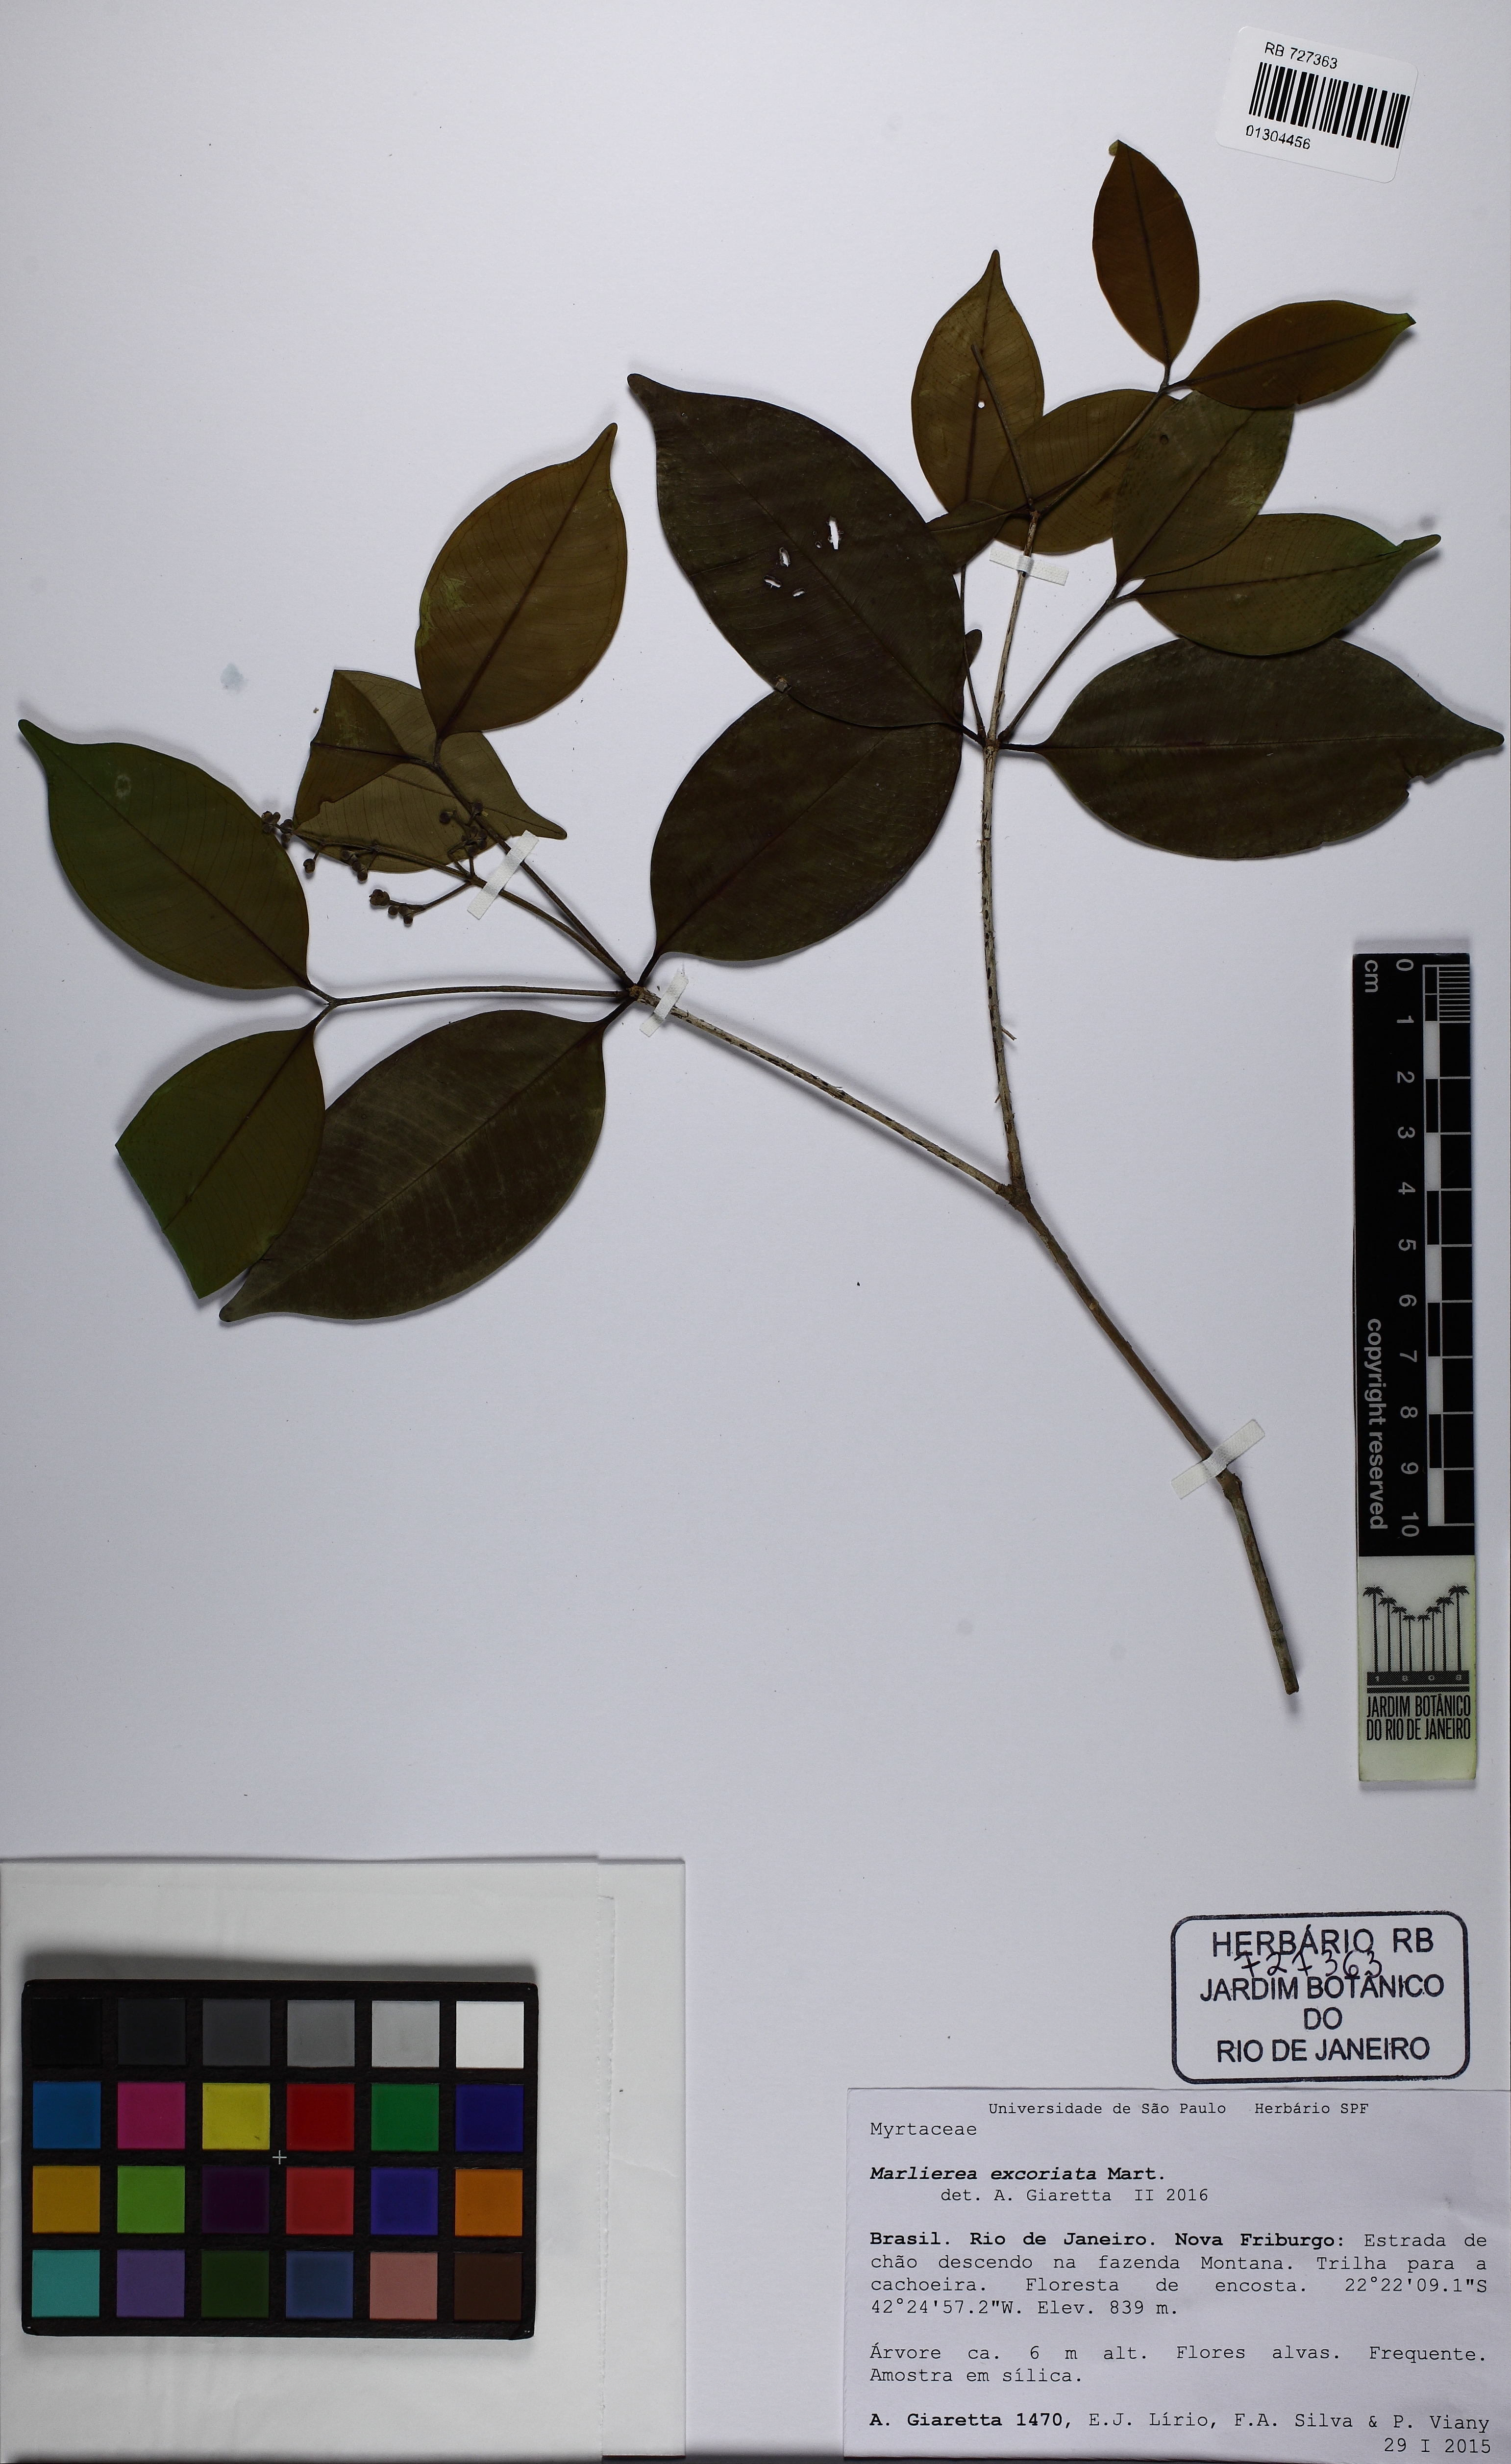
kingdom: Plantae
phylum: Tracheophyta
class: Magnoliopsida
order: Myrtales
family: Myrtaceae
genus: Myrcia
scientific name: Myrcia neolucida
